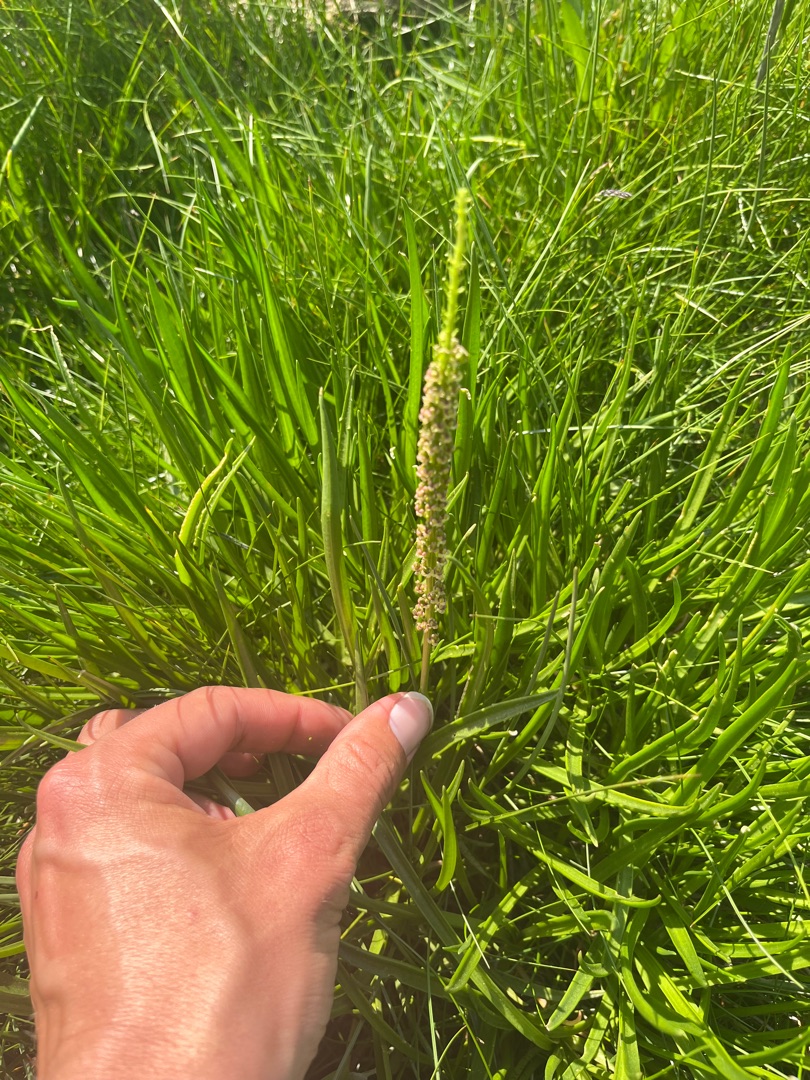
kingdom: Plantae
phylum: Tracheophyta
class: Liliopsida
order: Alismatales
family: Juncaginaceae
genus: Triglochin
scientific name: Triglochin maritima
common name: Strand-trehage
